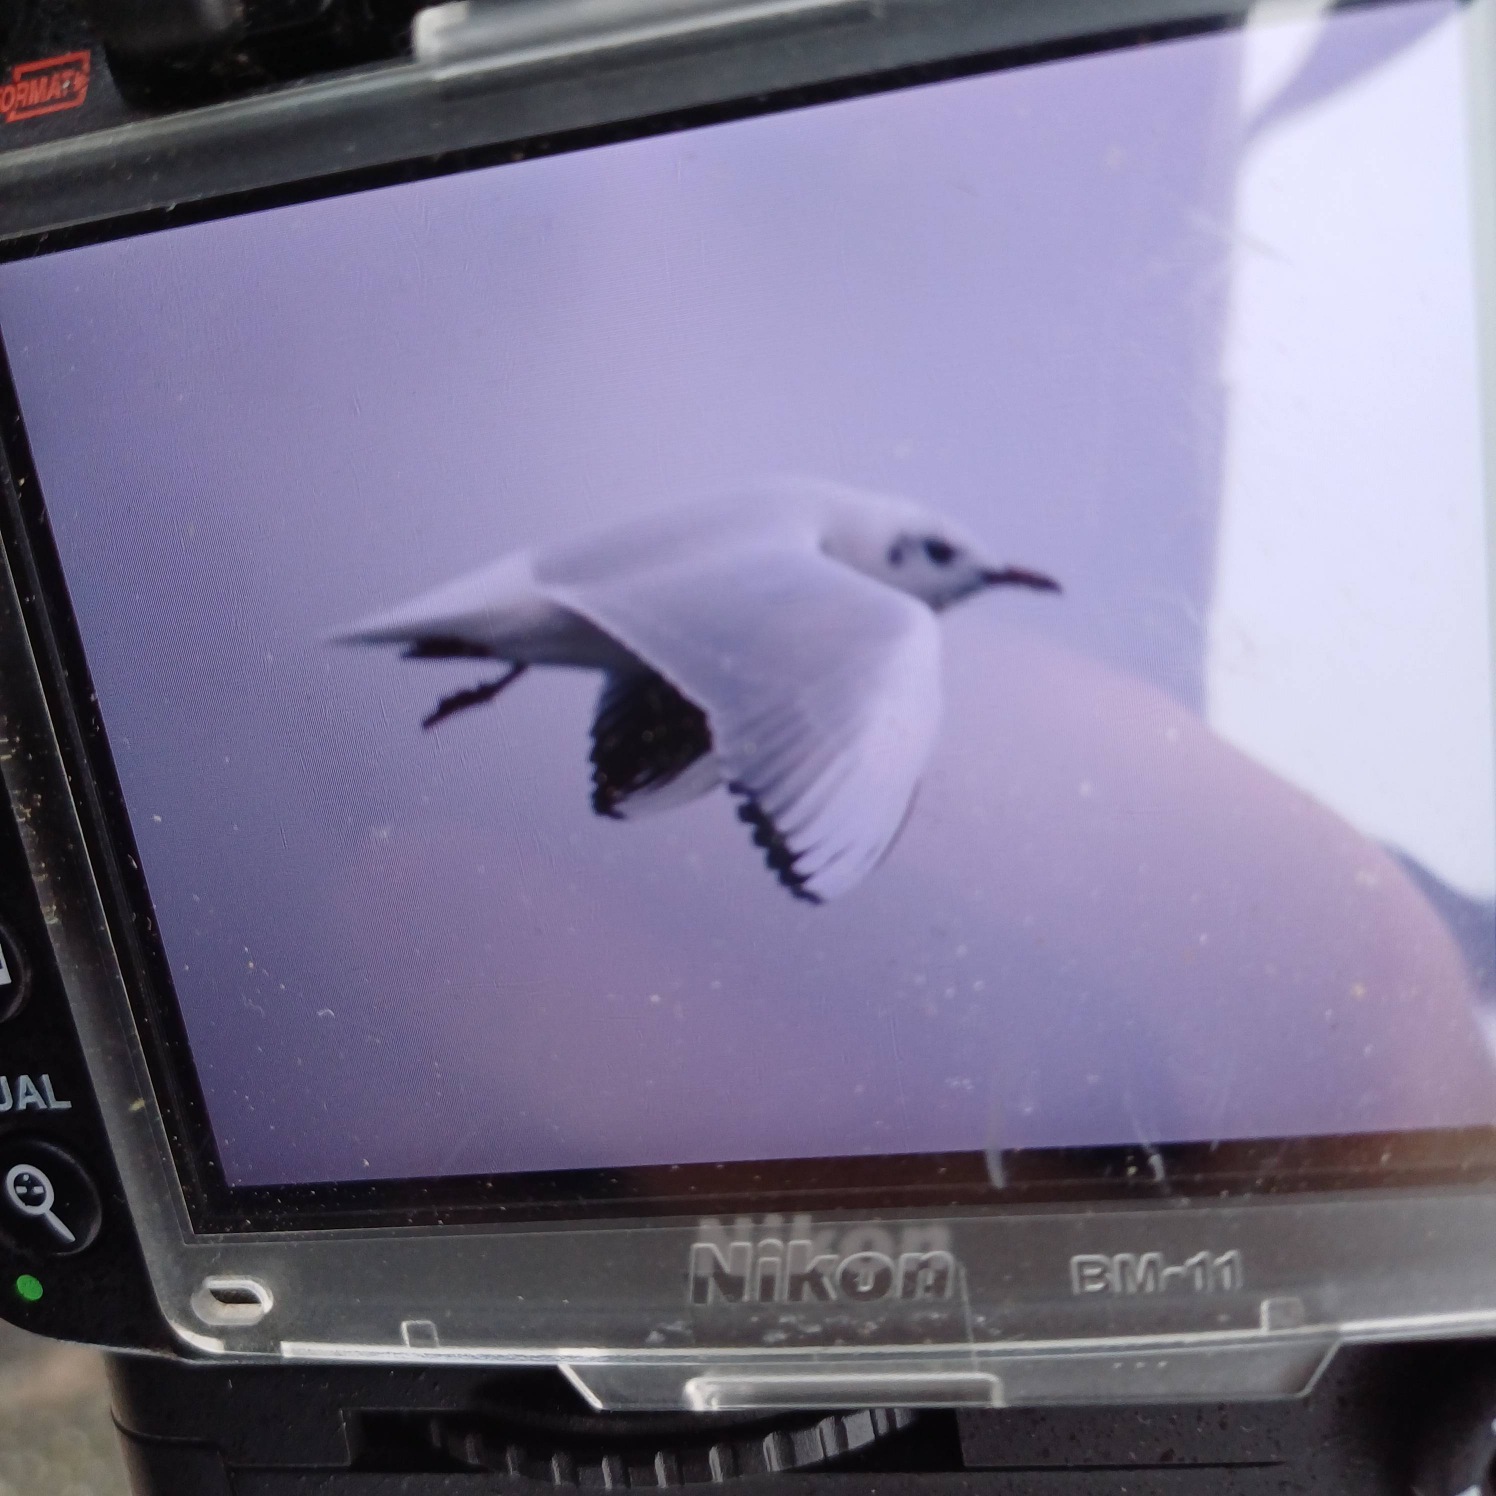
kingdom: Animalia
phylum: Chordata
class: Aves
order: Charadriiformes
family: Laridae
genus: Chroicocephalus
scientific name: Chroicocephalus ridibundus
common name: Hættemåge
